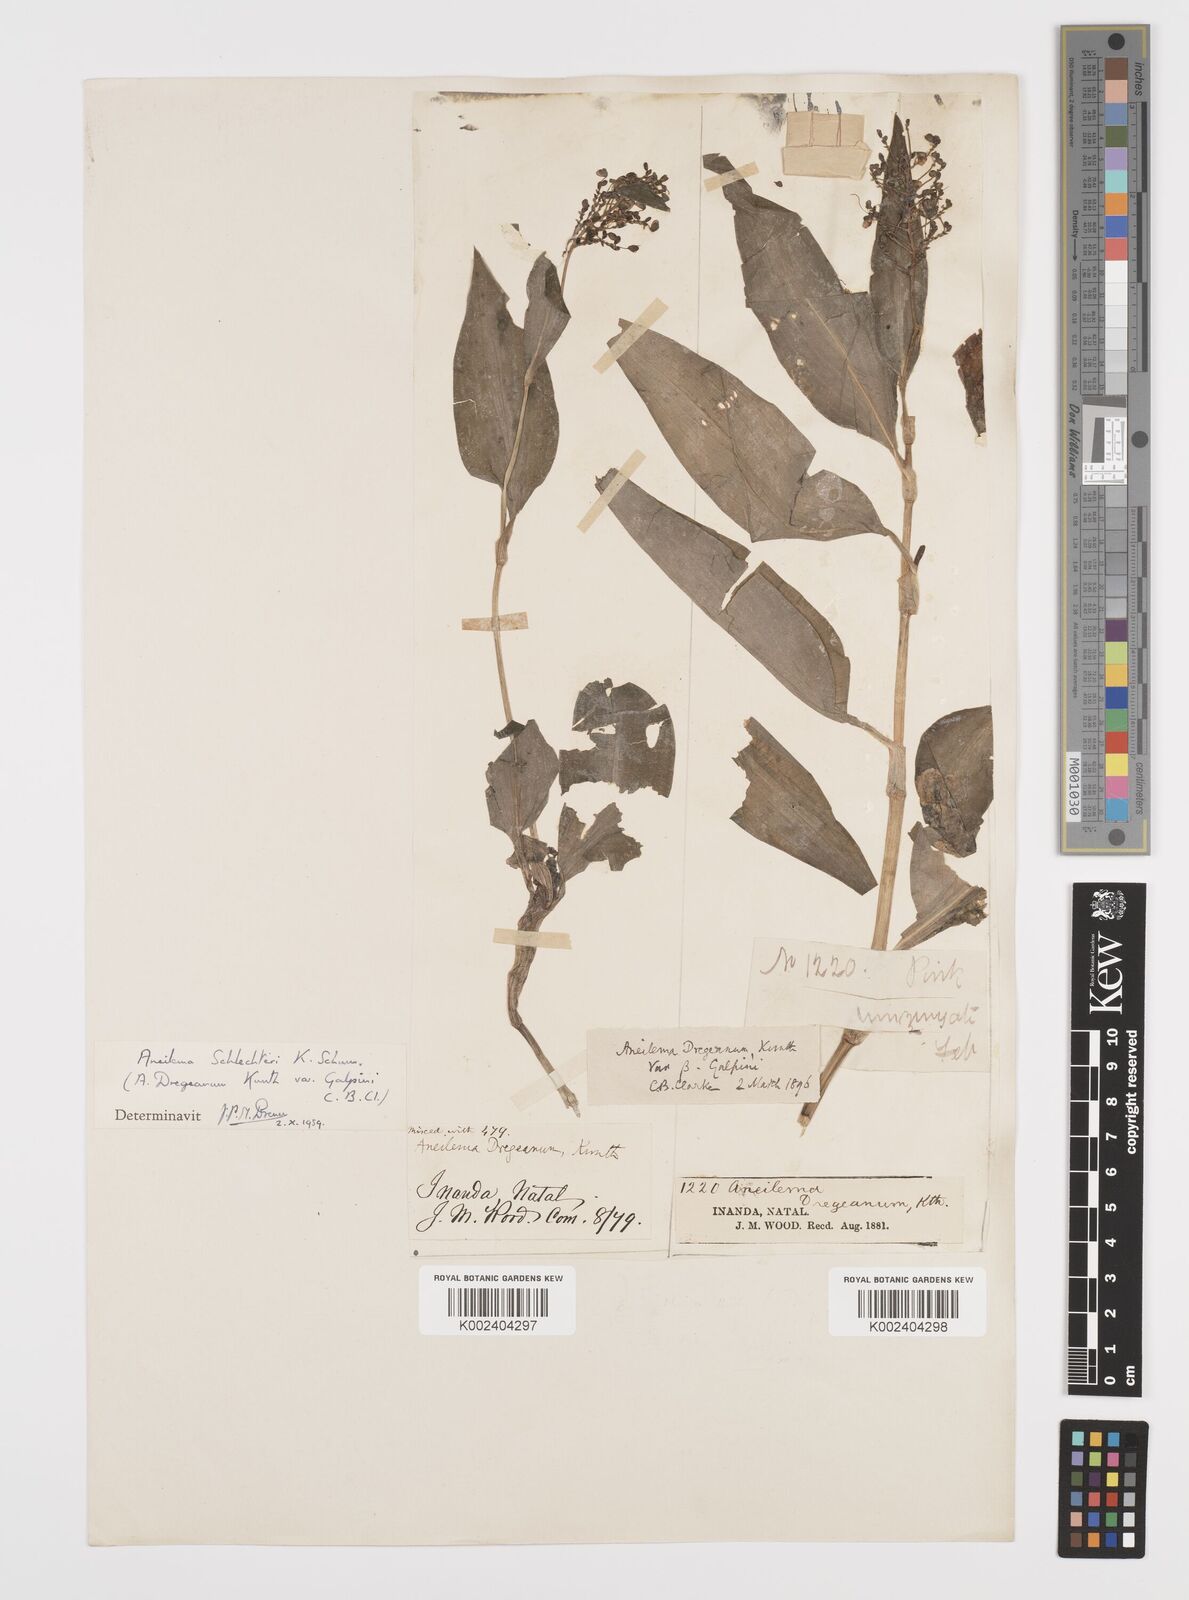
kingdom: Plantae
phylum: Tracheophyta
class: Liliopsida
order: Commelinales
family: Commelinaceae
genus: Aneilema
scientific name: Aneilema brunneospermum
